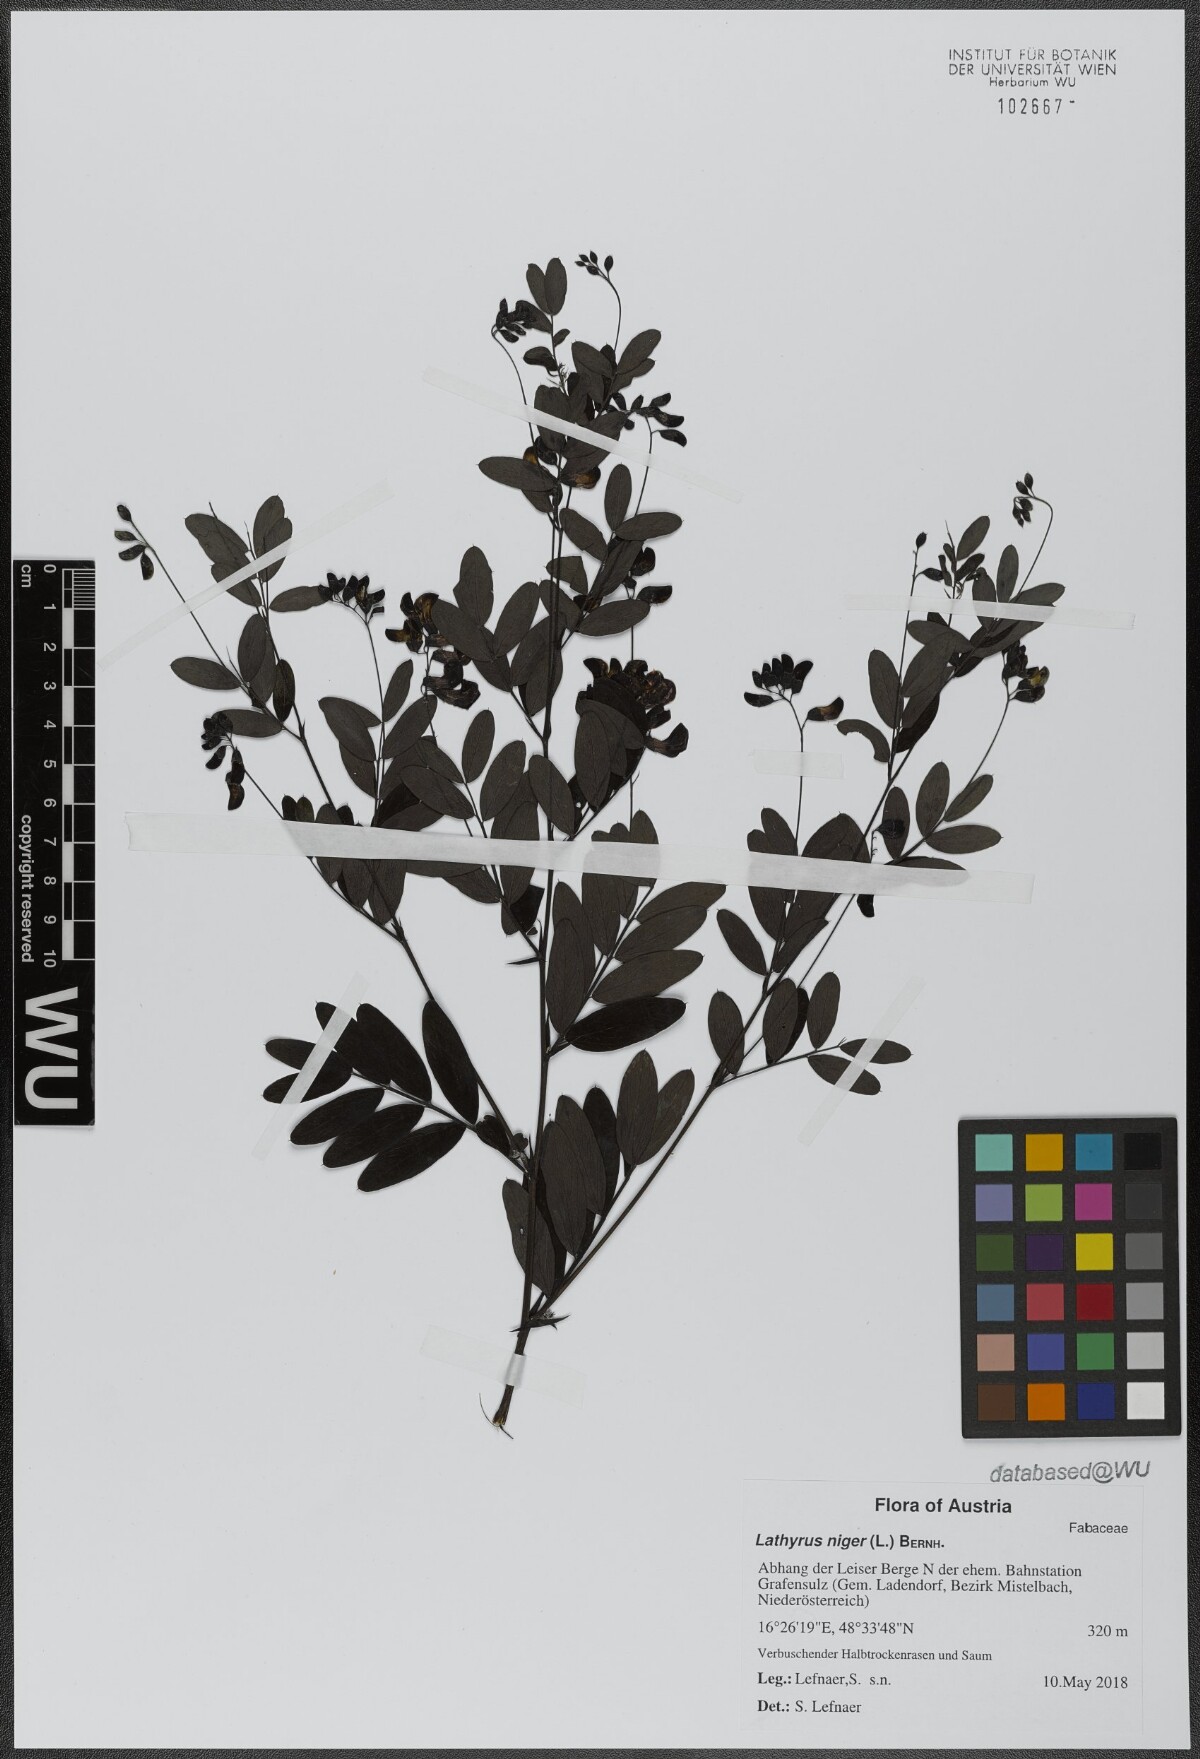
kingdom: Plantae
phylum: Tracheophyta
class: Magnoliopsida
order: Fabales
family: Fabaceae
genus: Lathyrus
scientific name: Lathyrus niger
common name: Black pea
